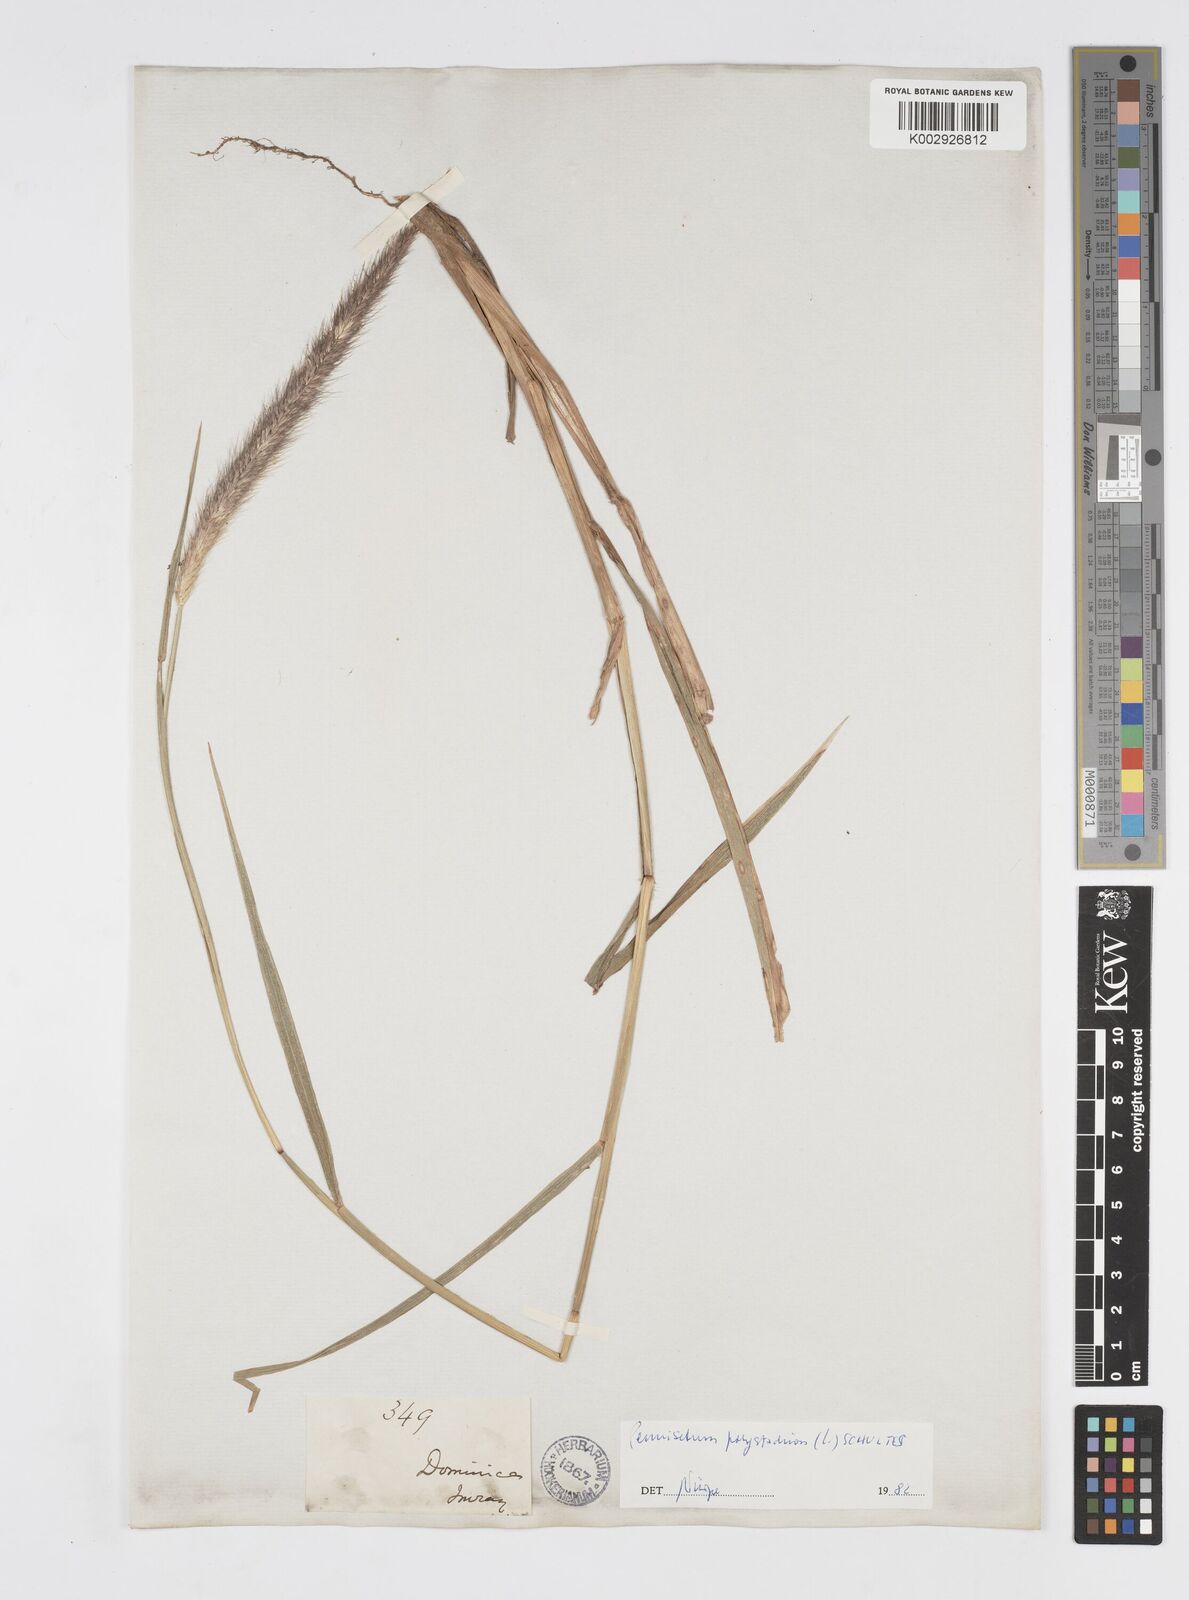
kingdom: Plantae
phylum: Tracheophyta
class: Liliopsida
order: Poales
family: Poaceae
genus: Cenchrus
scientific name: Cenchrus setosus
